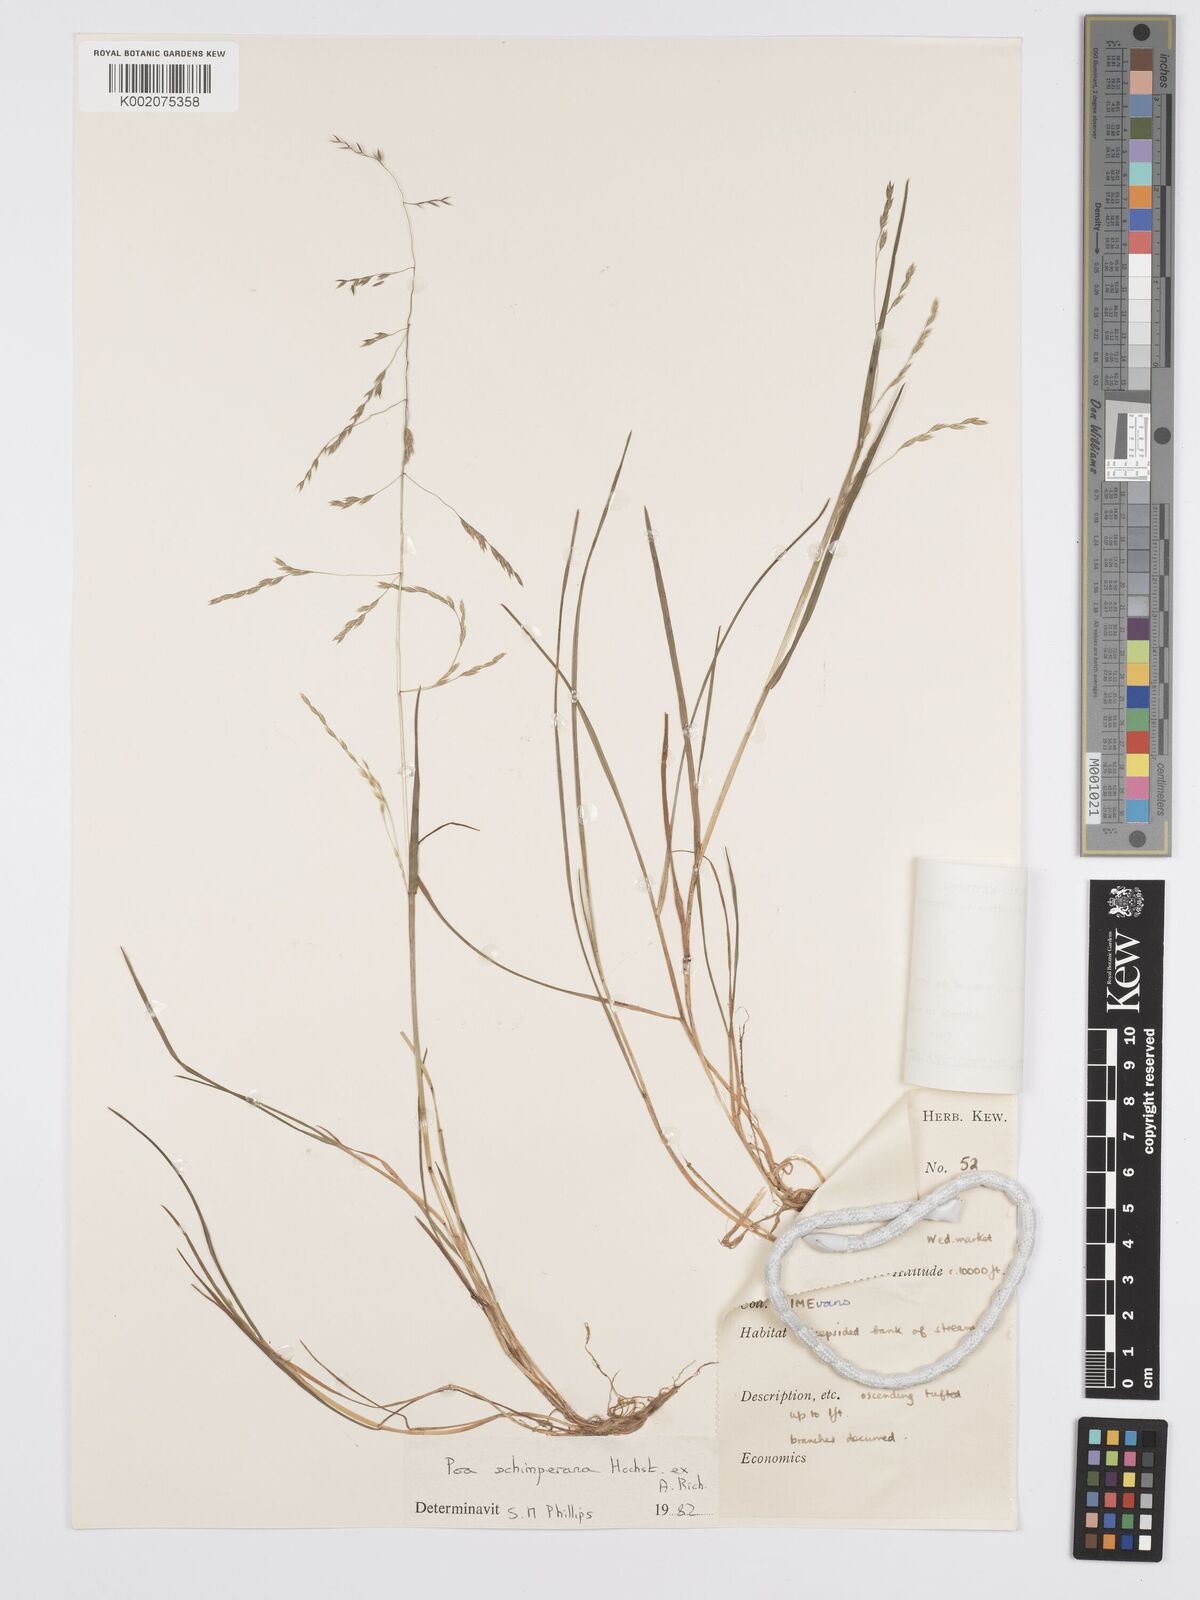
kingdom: Plantae
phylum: Tracheophyta
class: Liliopsida
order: Poales
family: Poaceae
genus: Poa
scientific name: Poa schimperiana
